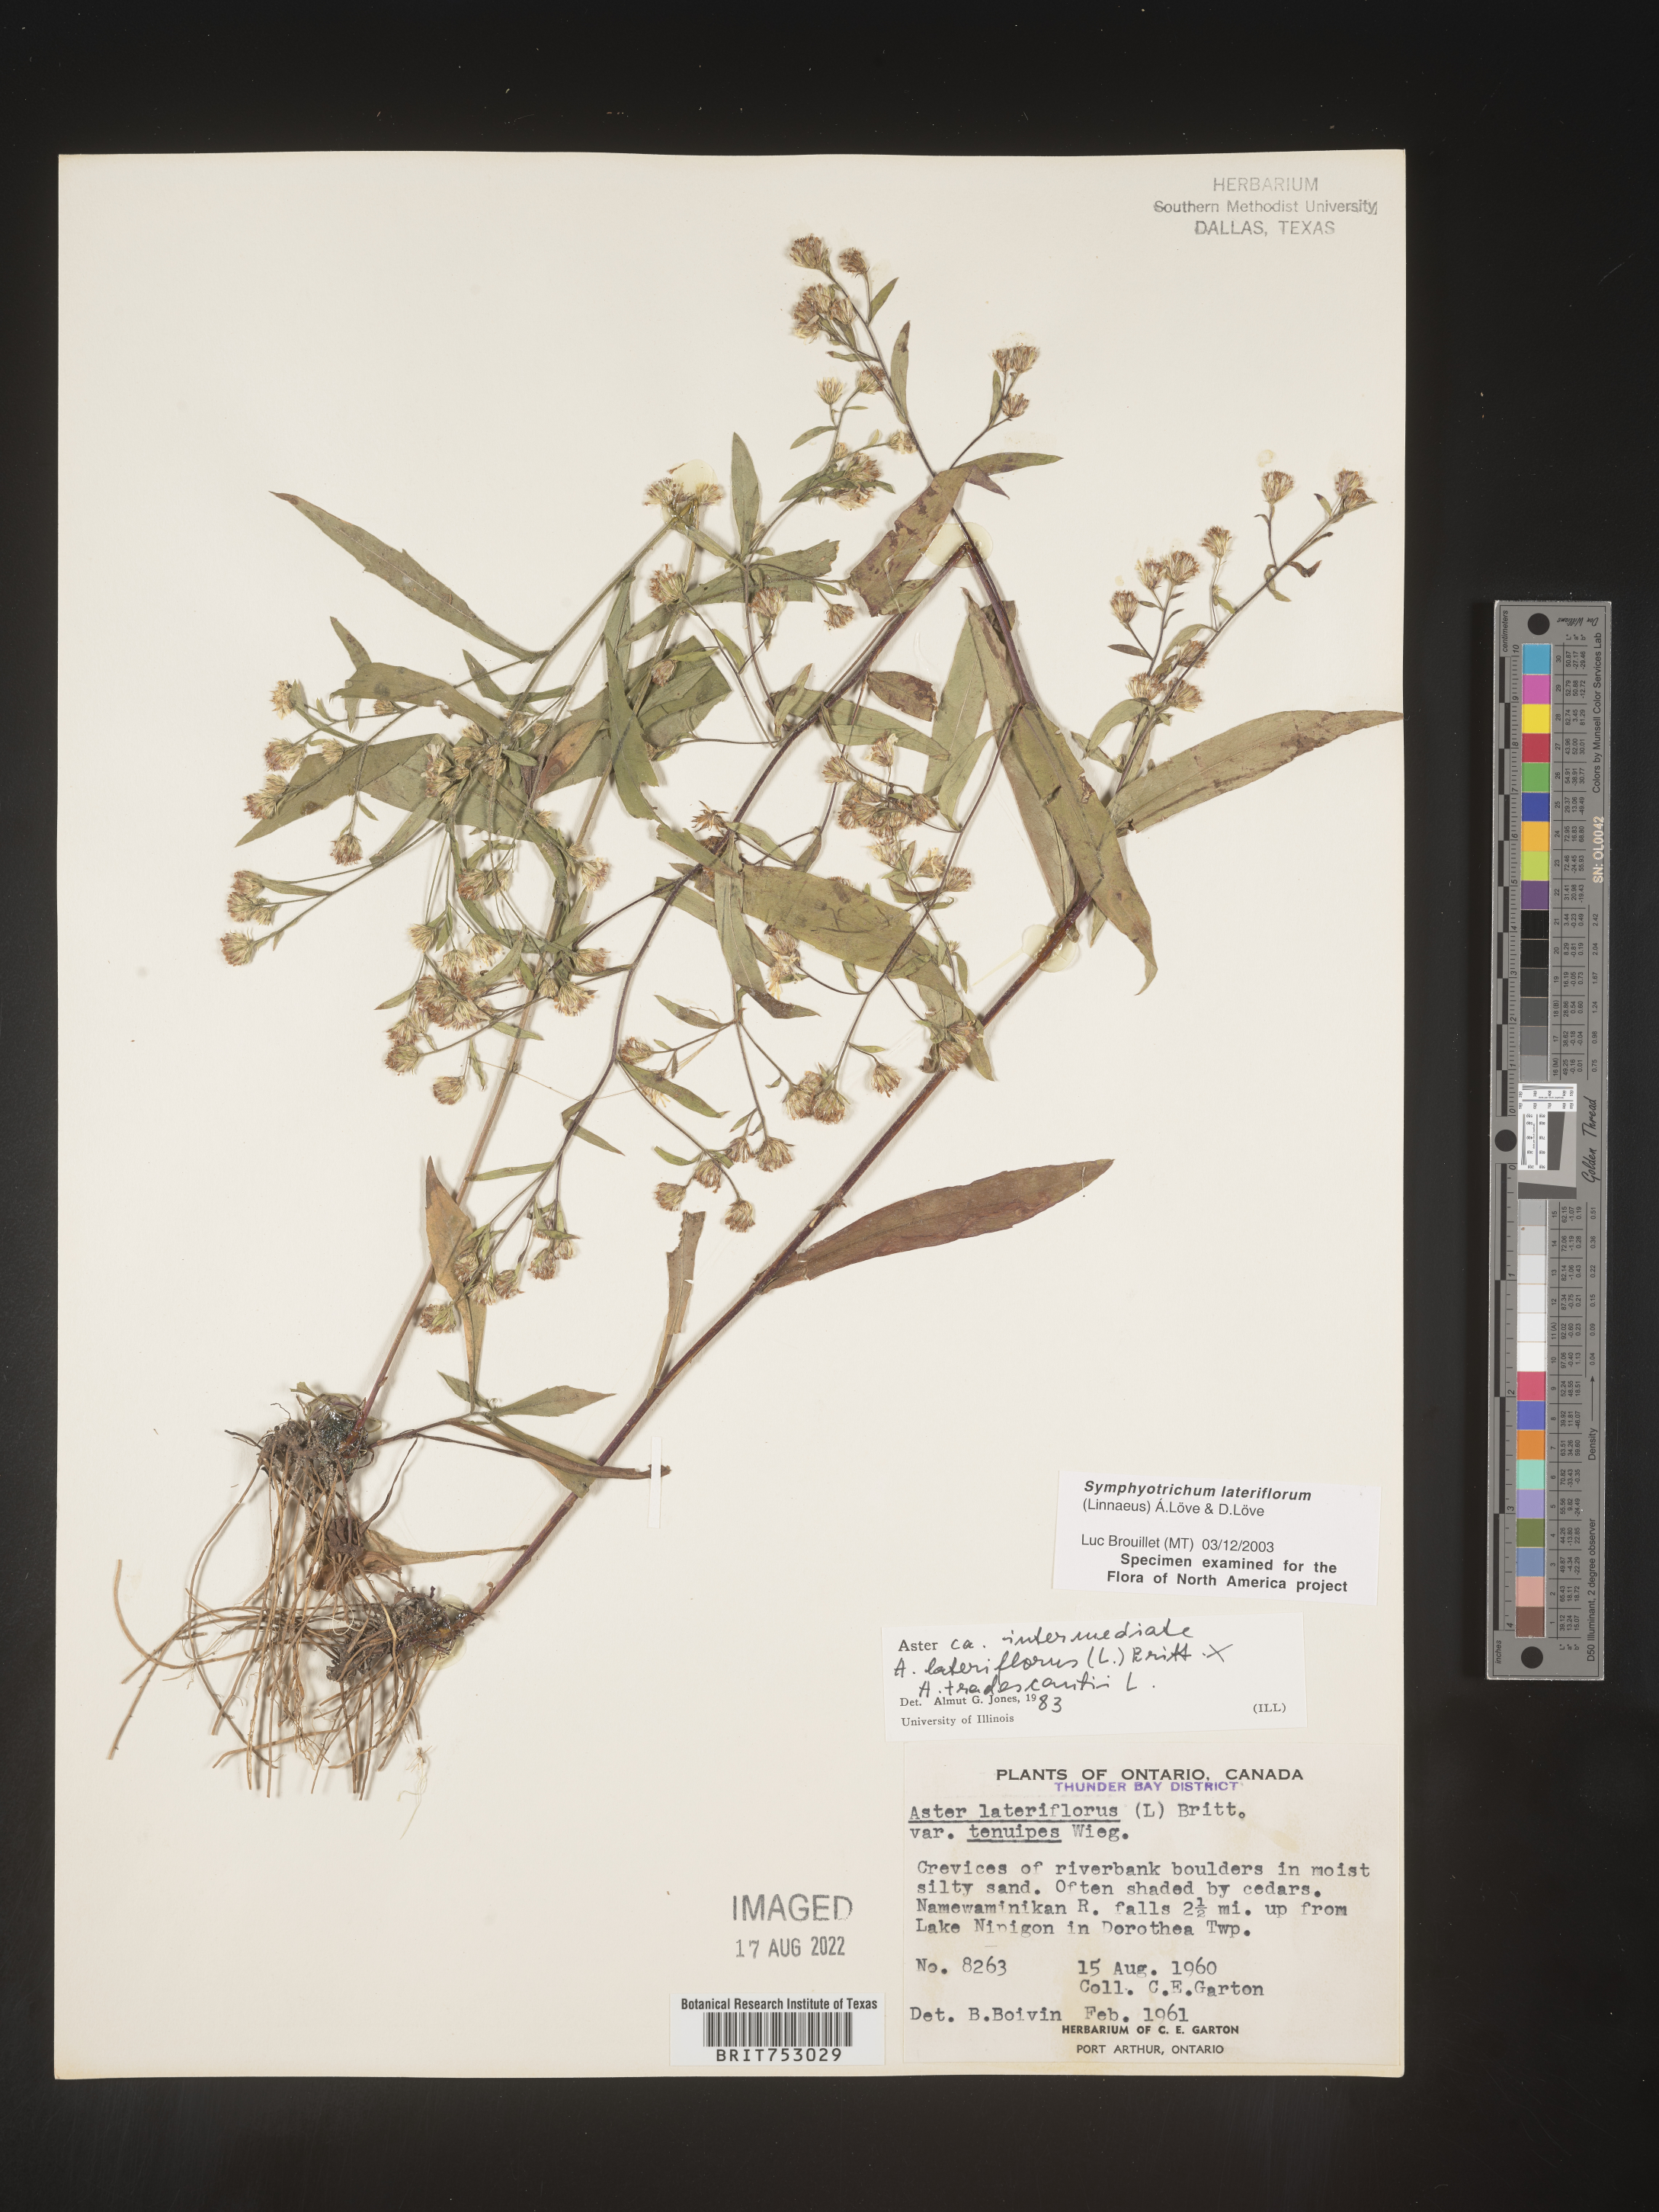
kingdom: Plantae
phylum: Tracheophyta
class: Magnoliopsida
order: Asterales
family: Asteraceae
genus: Symphyotrichum
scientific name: Symphyotrichum lateriflorum
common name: Calico aster
